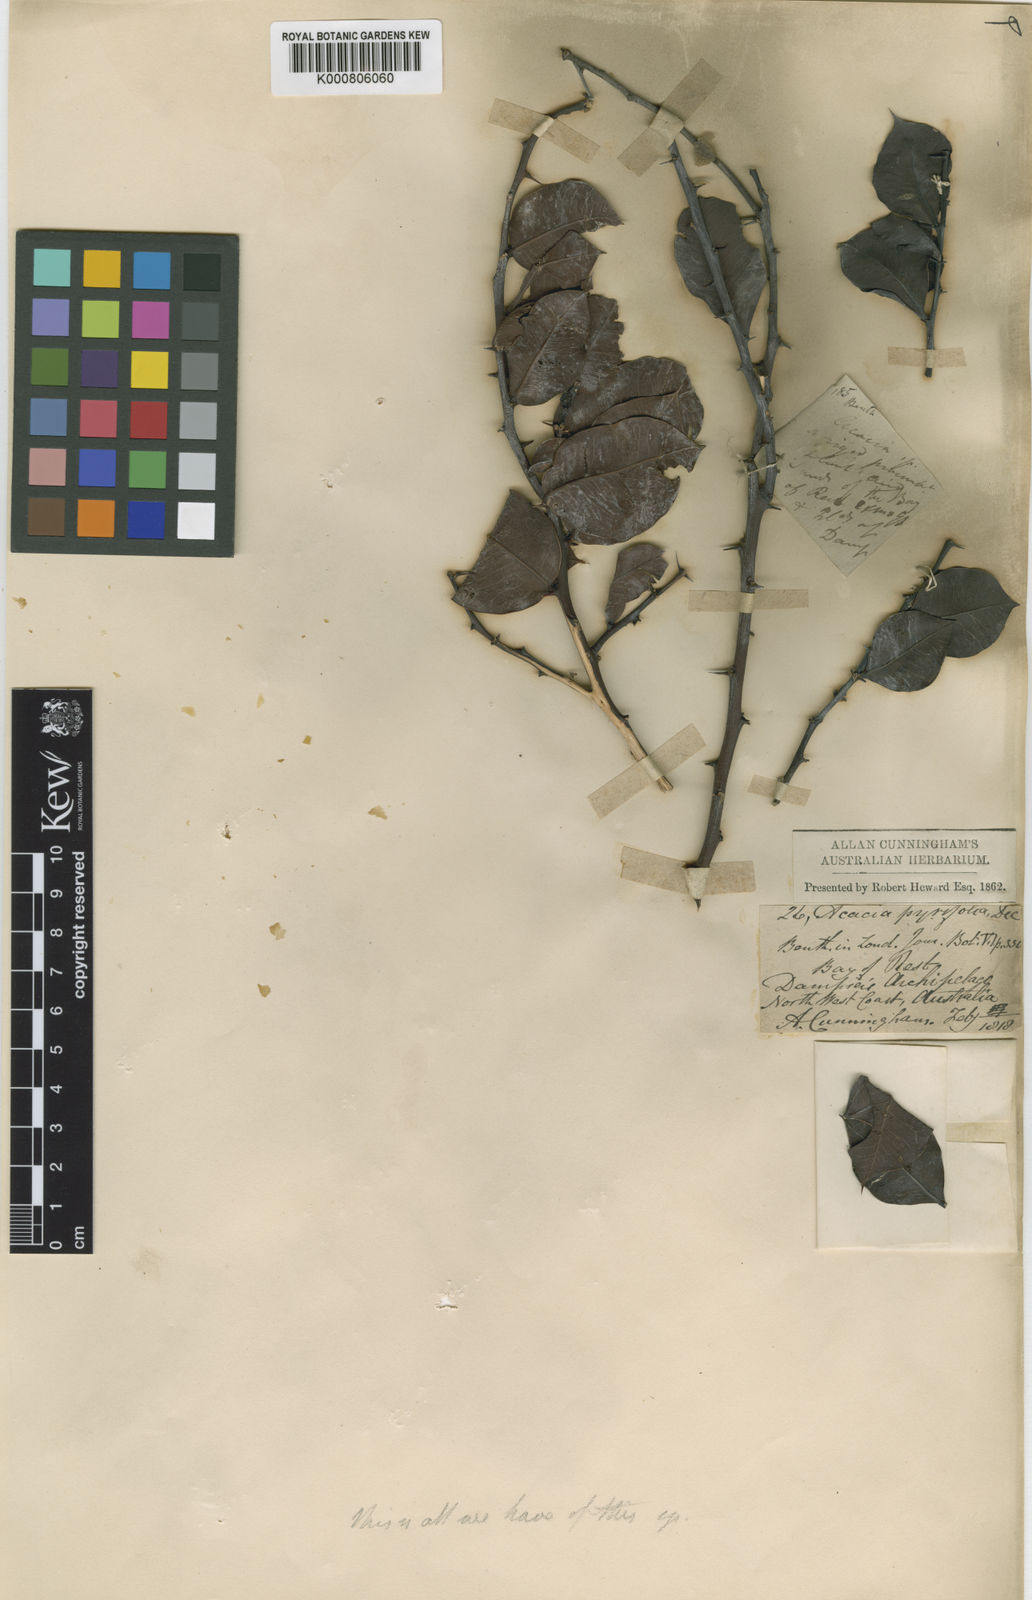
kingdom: Plantae
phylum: Tracheophyta
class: Magnoliopsida
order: Fabales
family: Fabaceae
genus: Acacia
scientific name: Acacia pyrifolia
